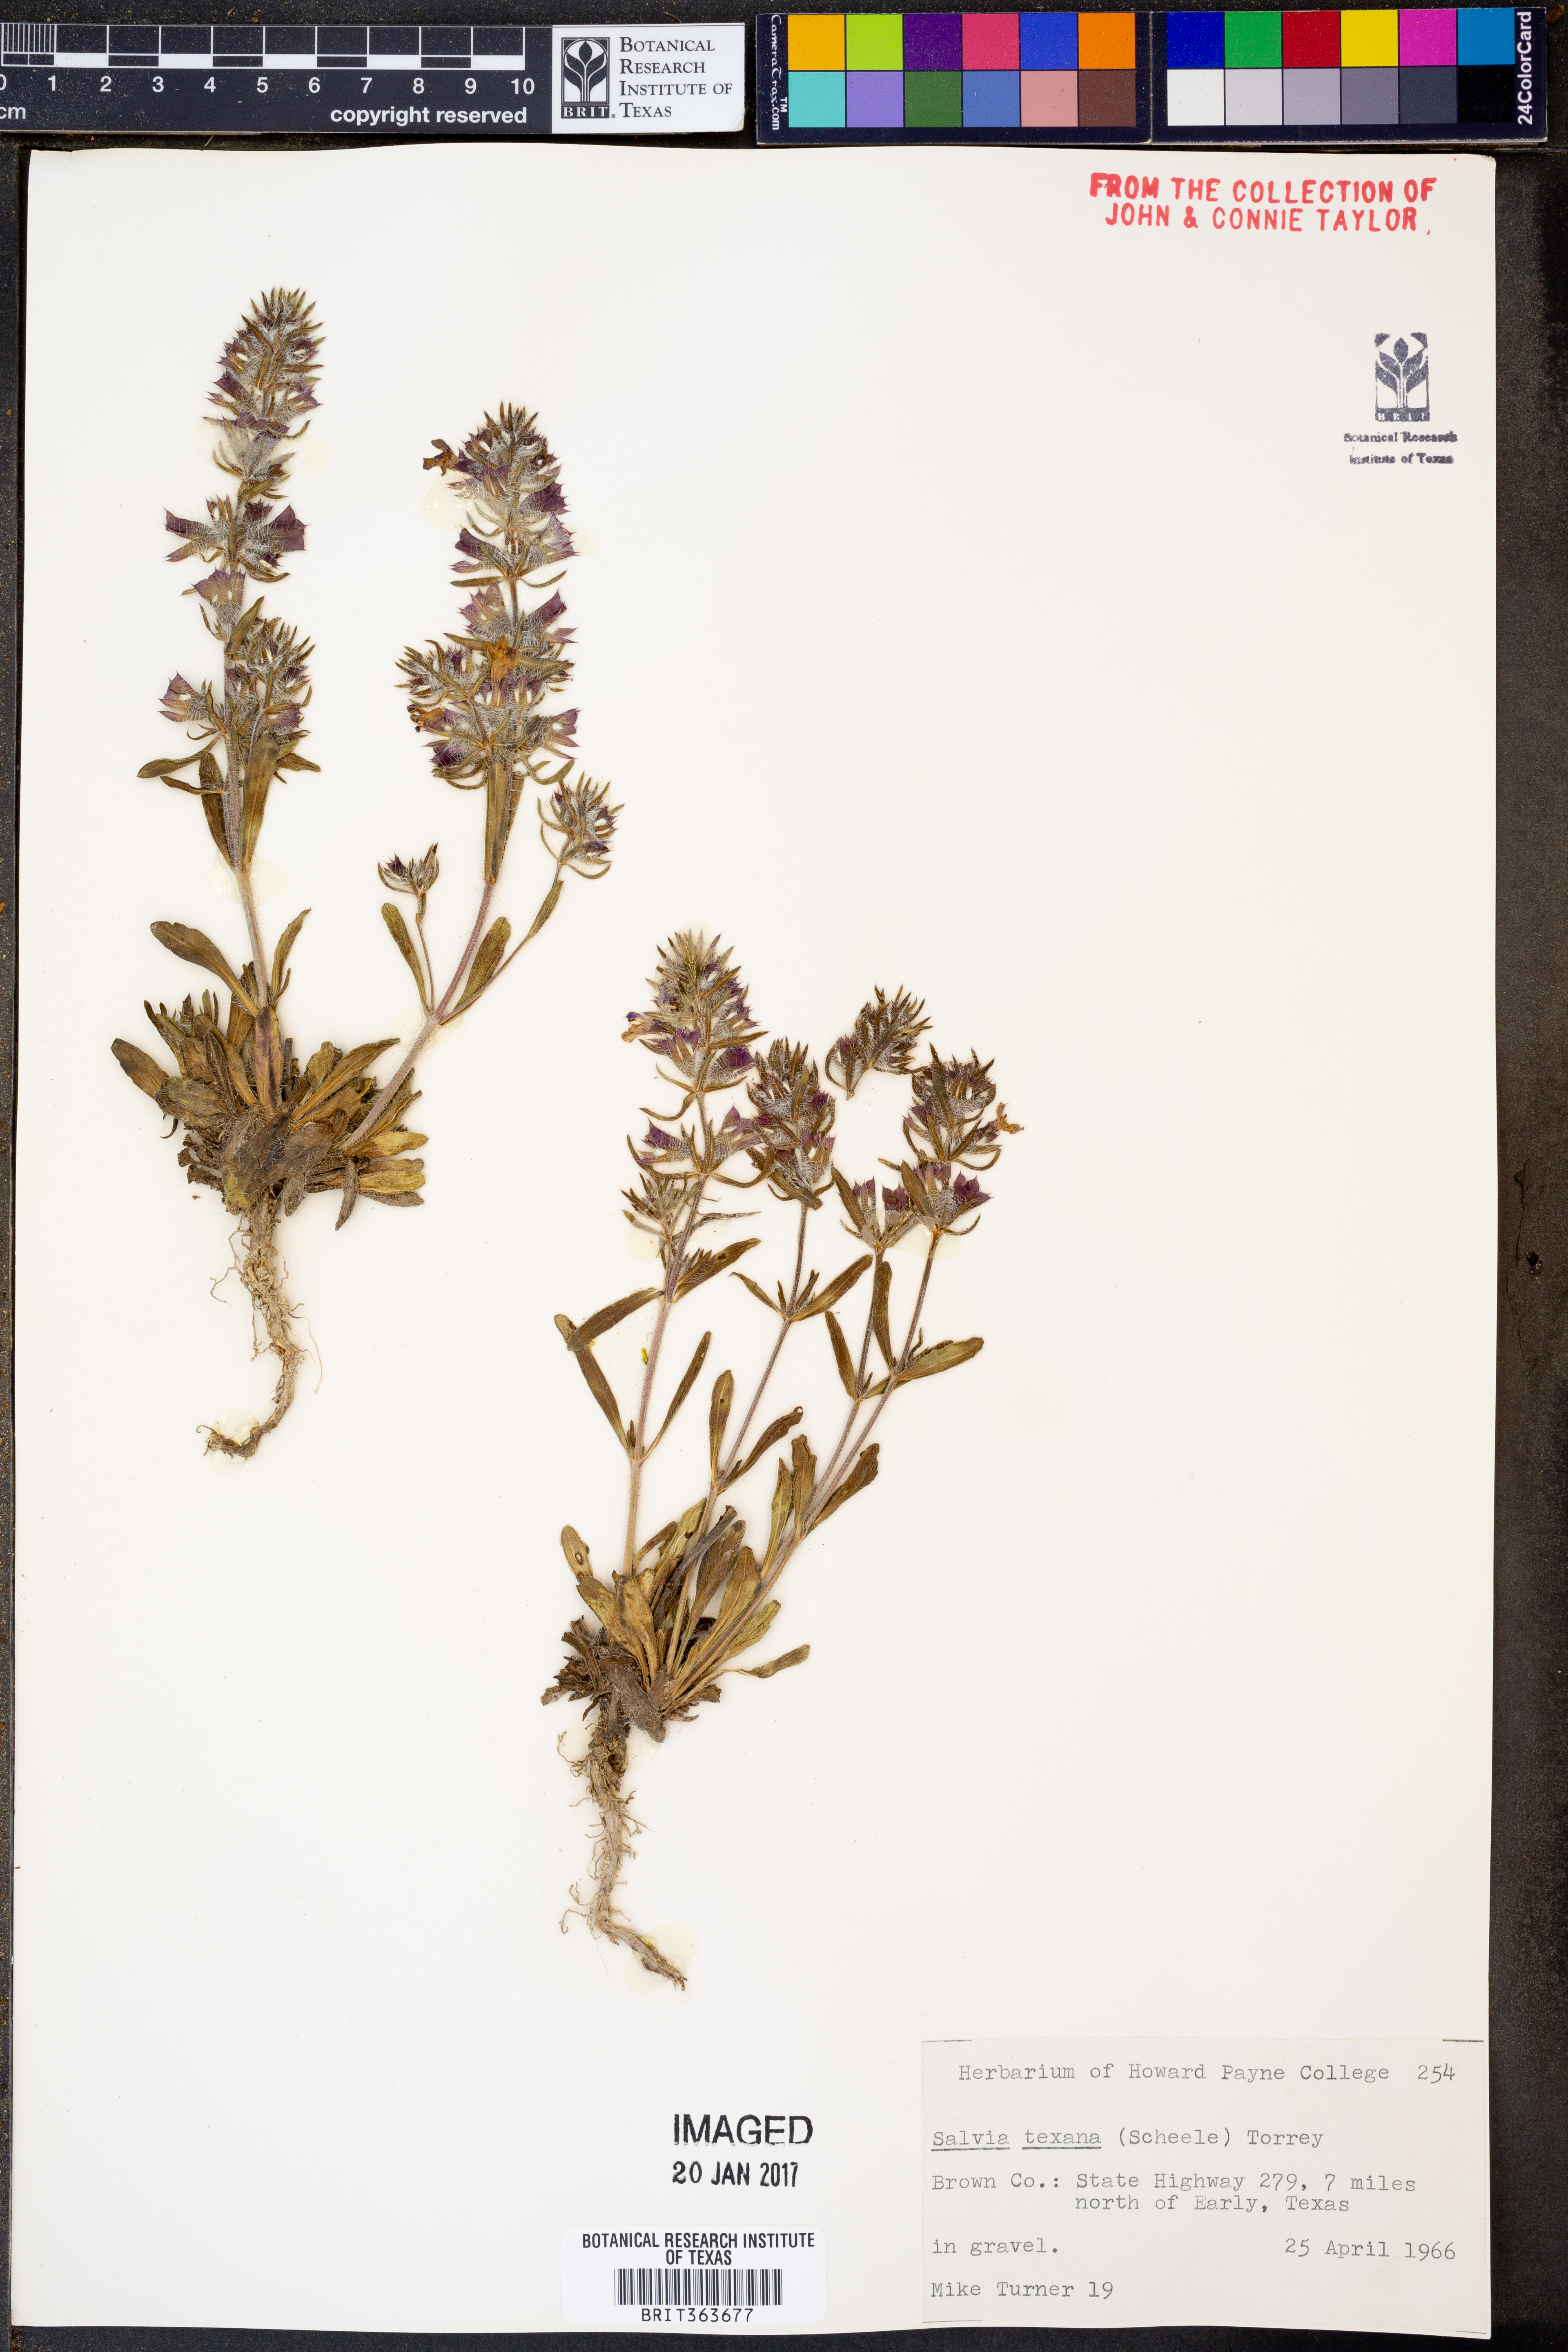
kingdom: Plantae
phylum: Tracheophyta
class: Magnoliopsida
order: Lamiales
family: Lamiaceae
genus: Salvia
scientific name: Salvia texana
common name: Texas sage
